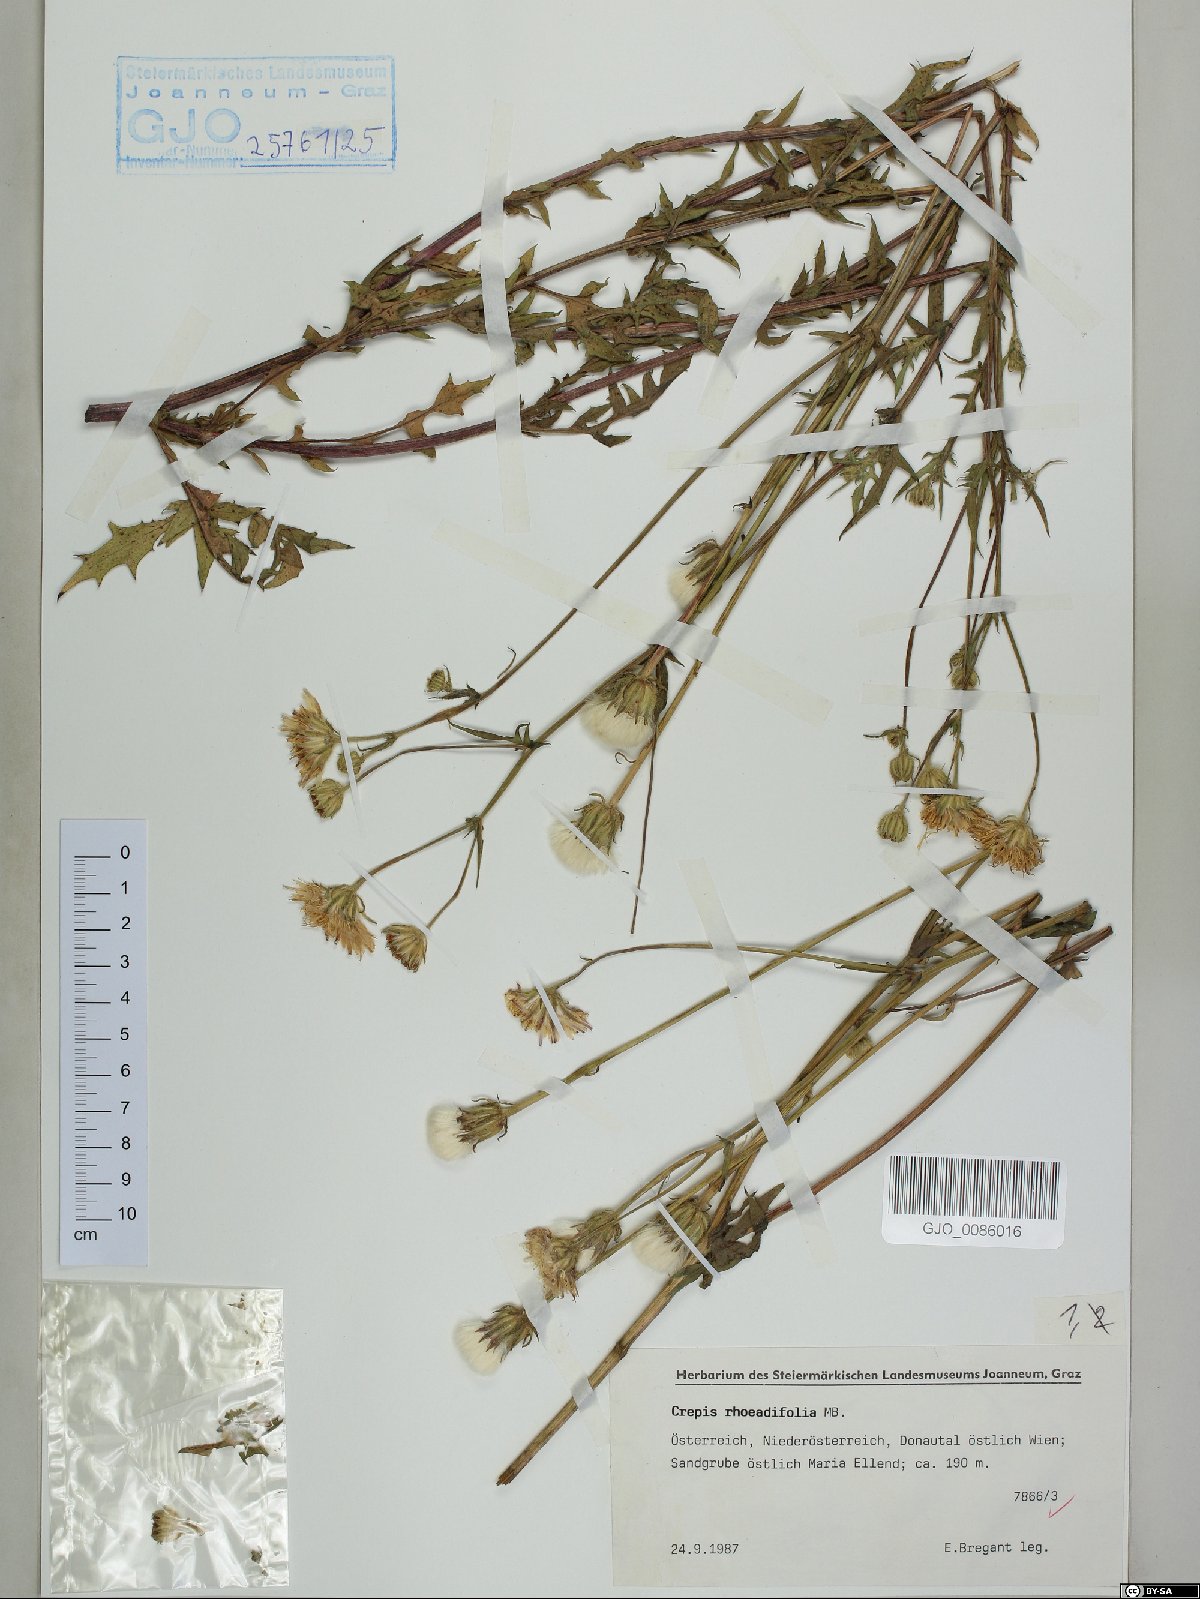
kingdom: Plantae
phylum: Tracheophyta
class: Magnoliopsida
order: Asterales
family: Asteraceae
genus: Crepis
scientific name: Crepis foetida
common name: Stinking hawk's-beard
